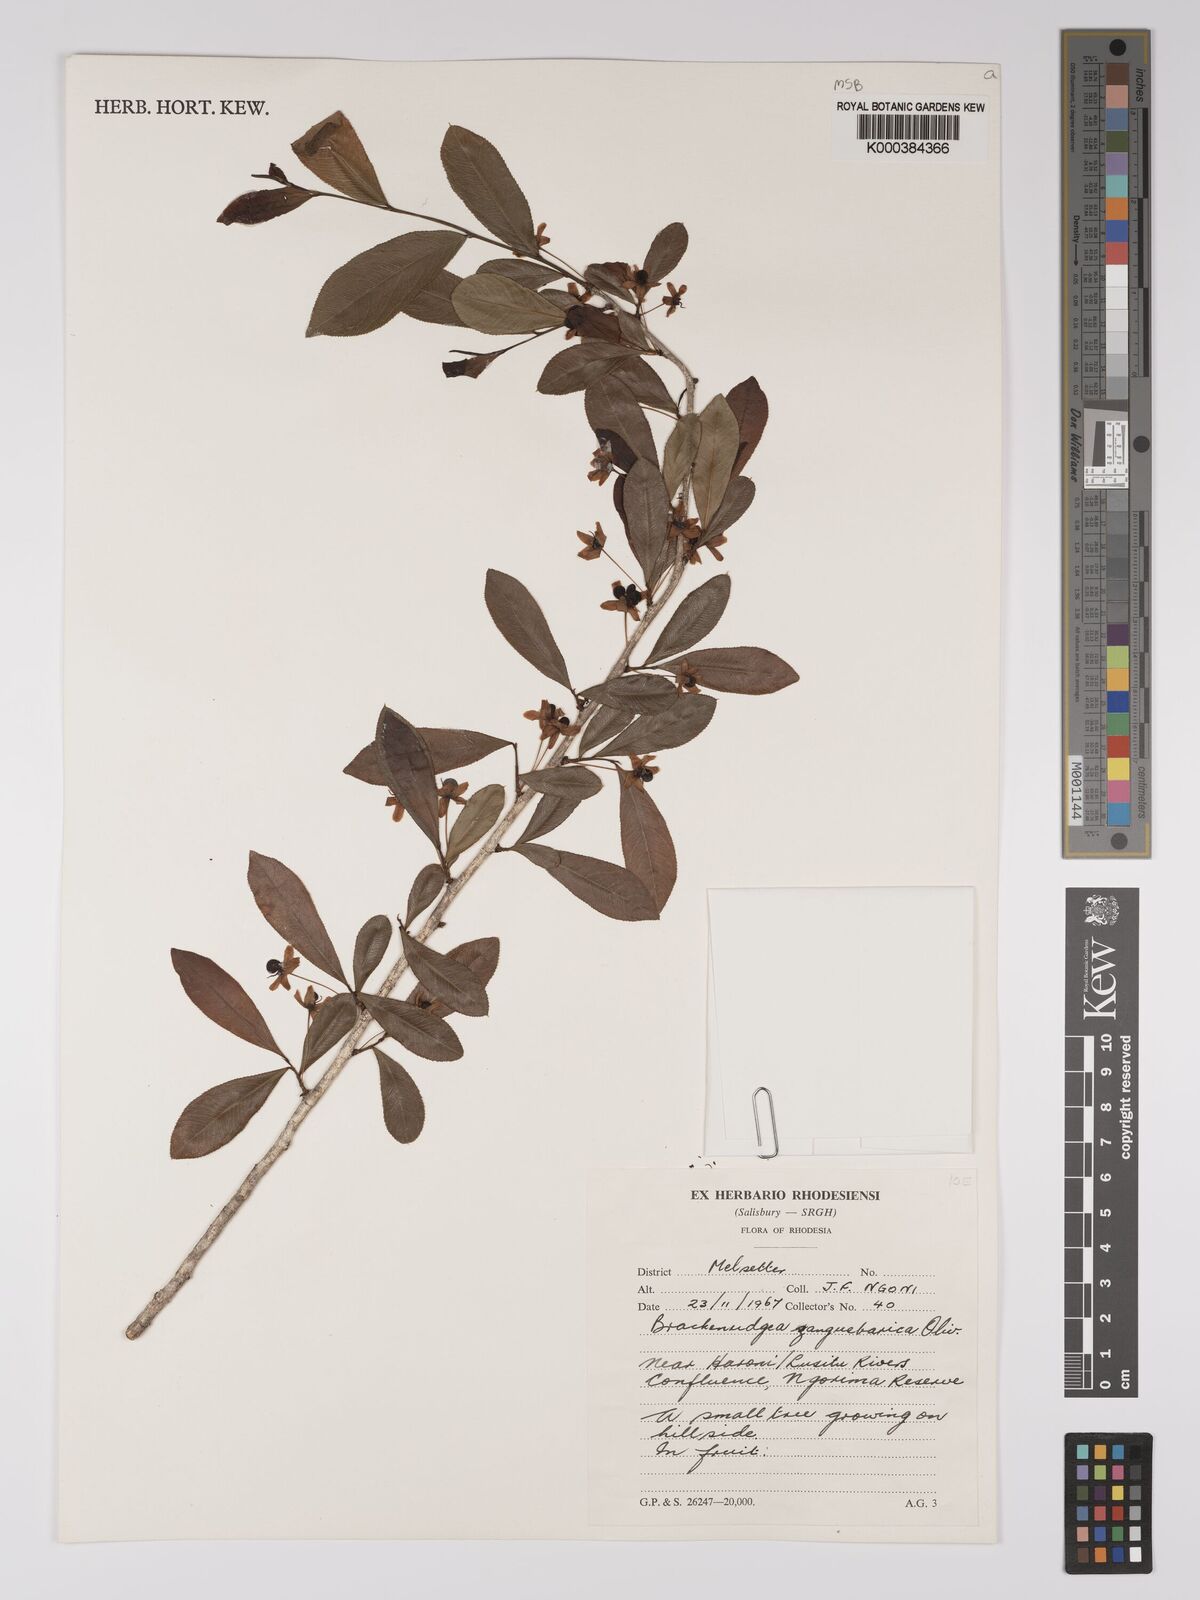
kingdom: Plantae
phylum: Tracheophyta
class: Magnoliopsida
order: Malpighiales
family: Ochnaceae
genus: Brackenridgea
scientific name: Brackenridgea zanguebarica
